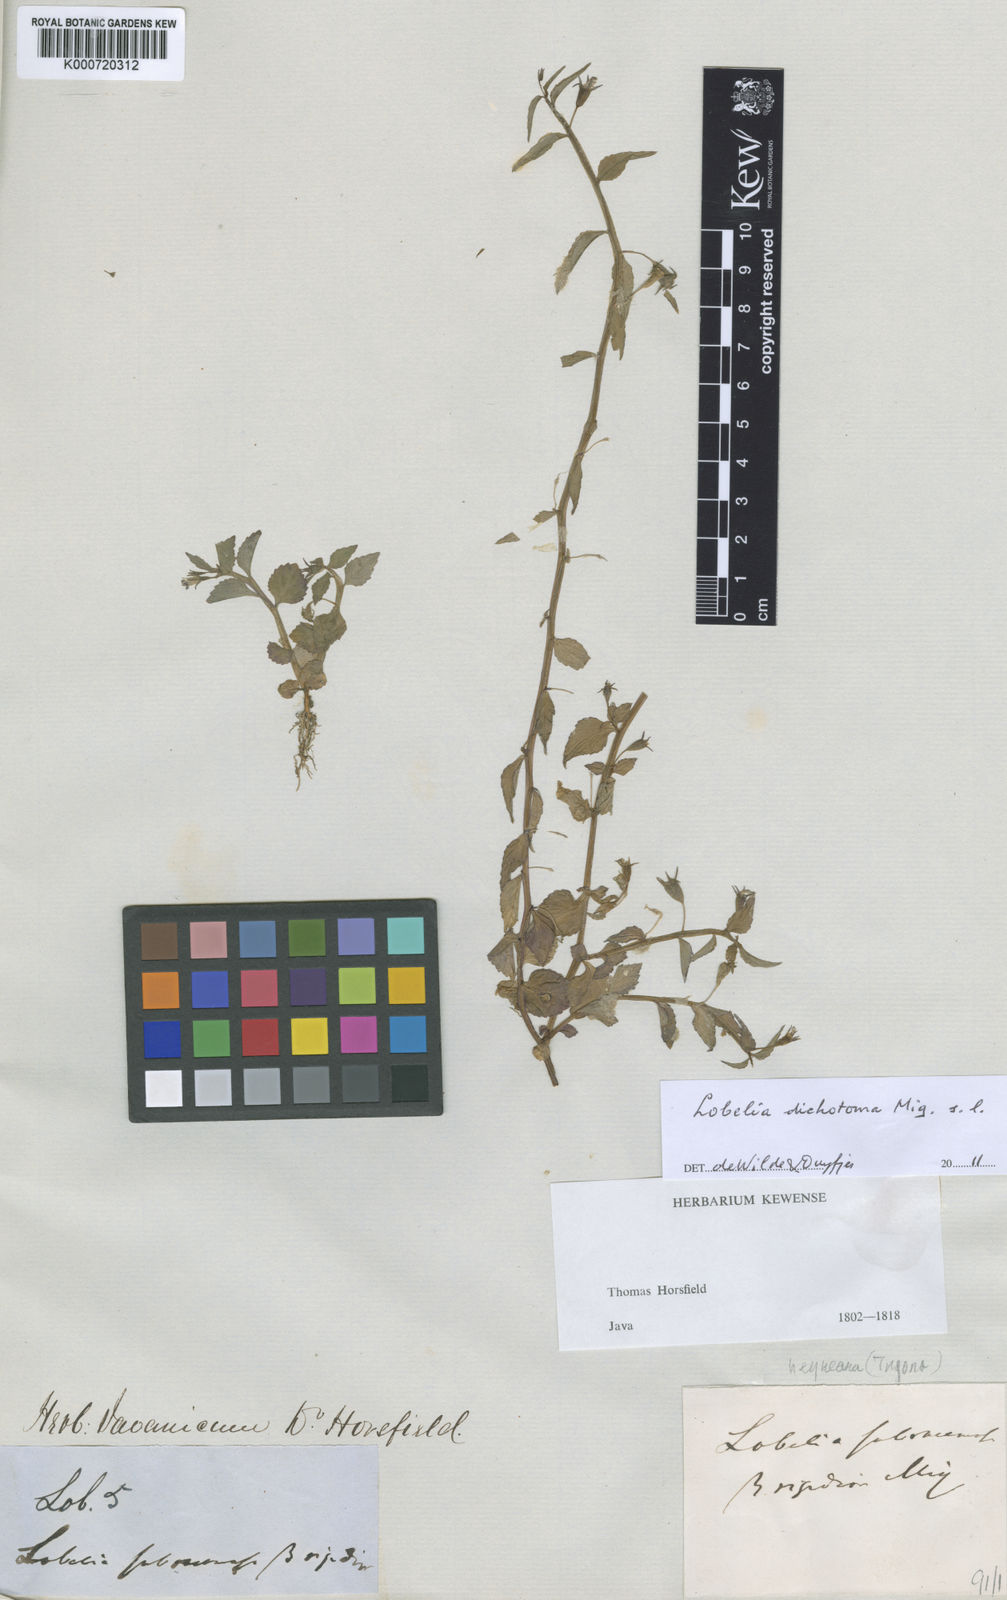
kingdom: Plantae
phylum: Tracheophyta
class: Magnoliopsida
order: Asterales
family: Campanulaceae
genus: Lobelia
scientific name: Lobelia reinwardtiana
